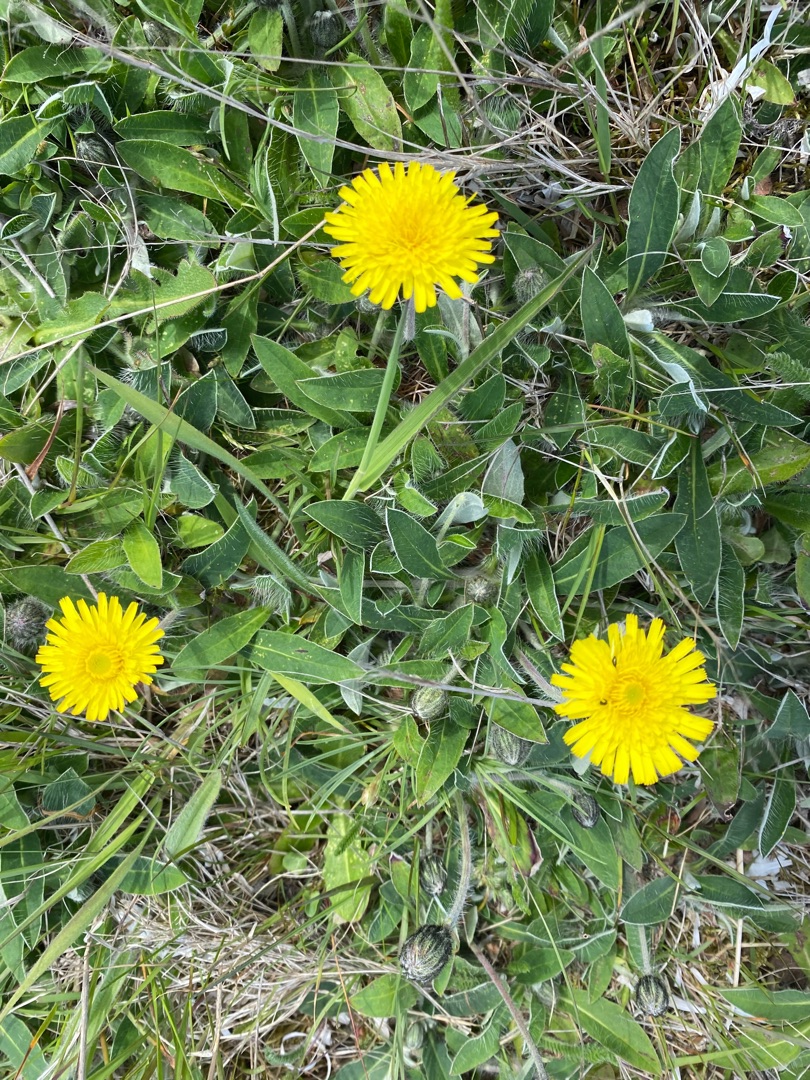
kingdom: Plantae
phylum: Tracheophyta
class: Magnoliopsida
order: Asterales
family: Asteraceae
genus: Pilosella
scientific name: Pilosella officinarum
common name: Håret høgeurt
